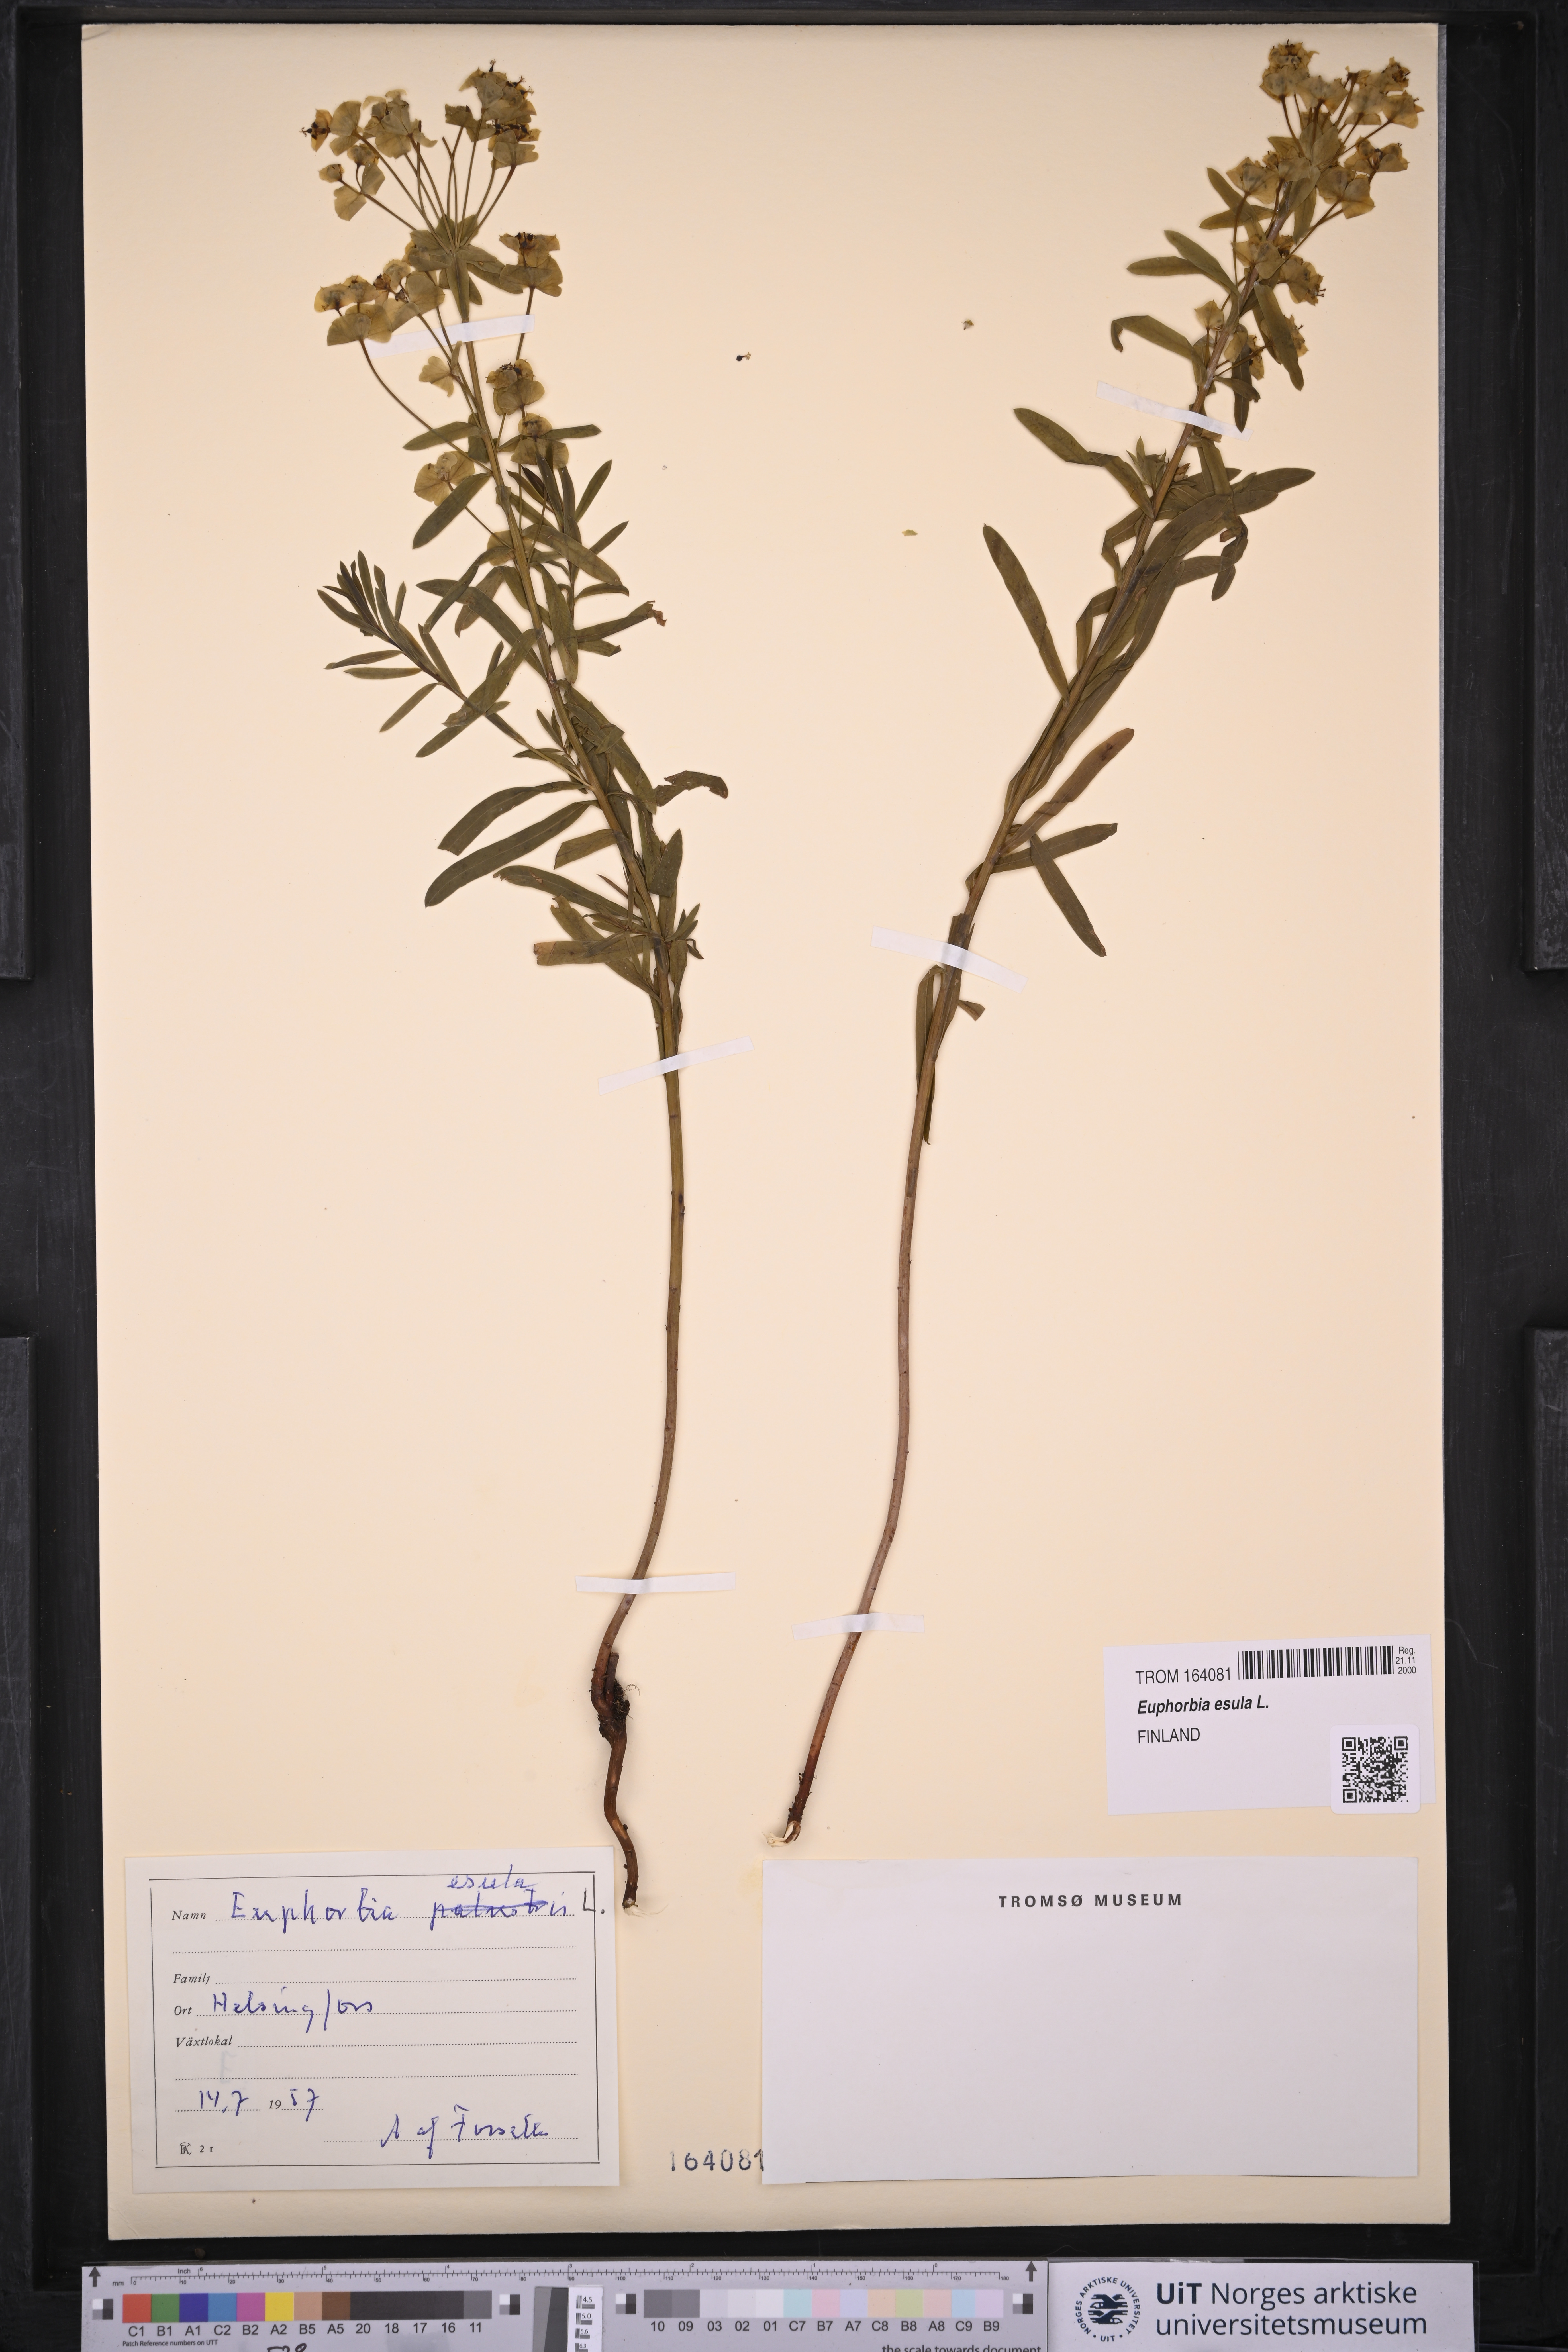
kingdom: Plantae
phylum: Tracheophyta
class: Magnoliopsida
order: Malpighiales
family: Euphorbiaceae
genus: Euphorbia
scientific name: Euphorbia esula
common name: Leafy spurge
